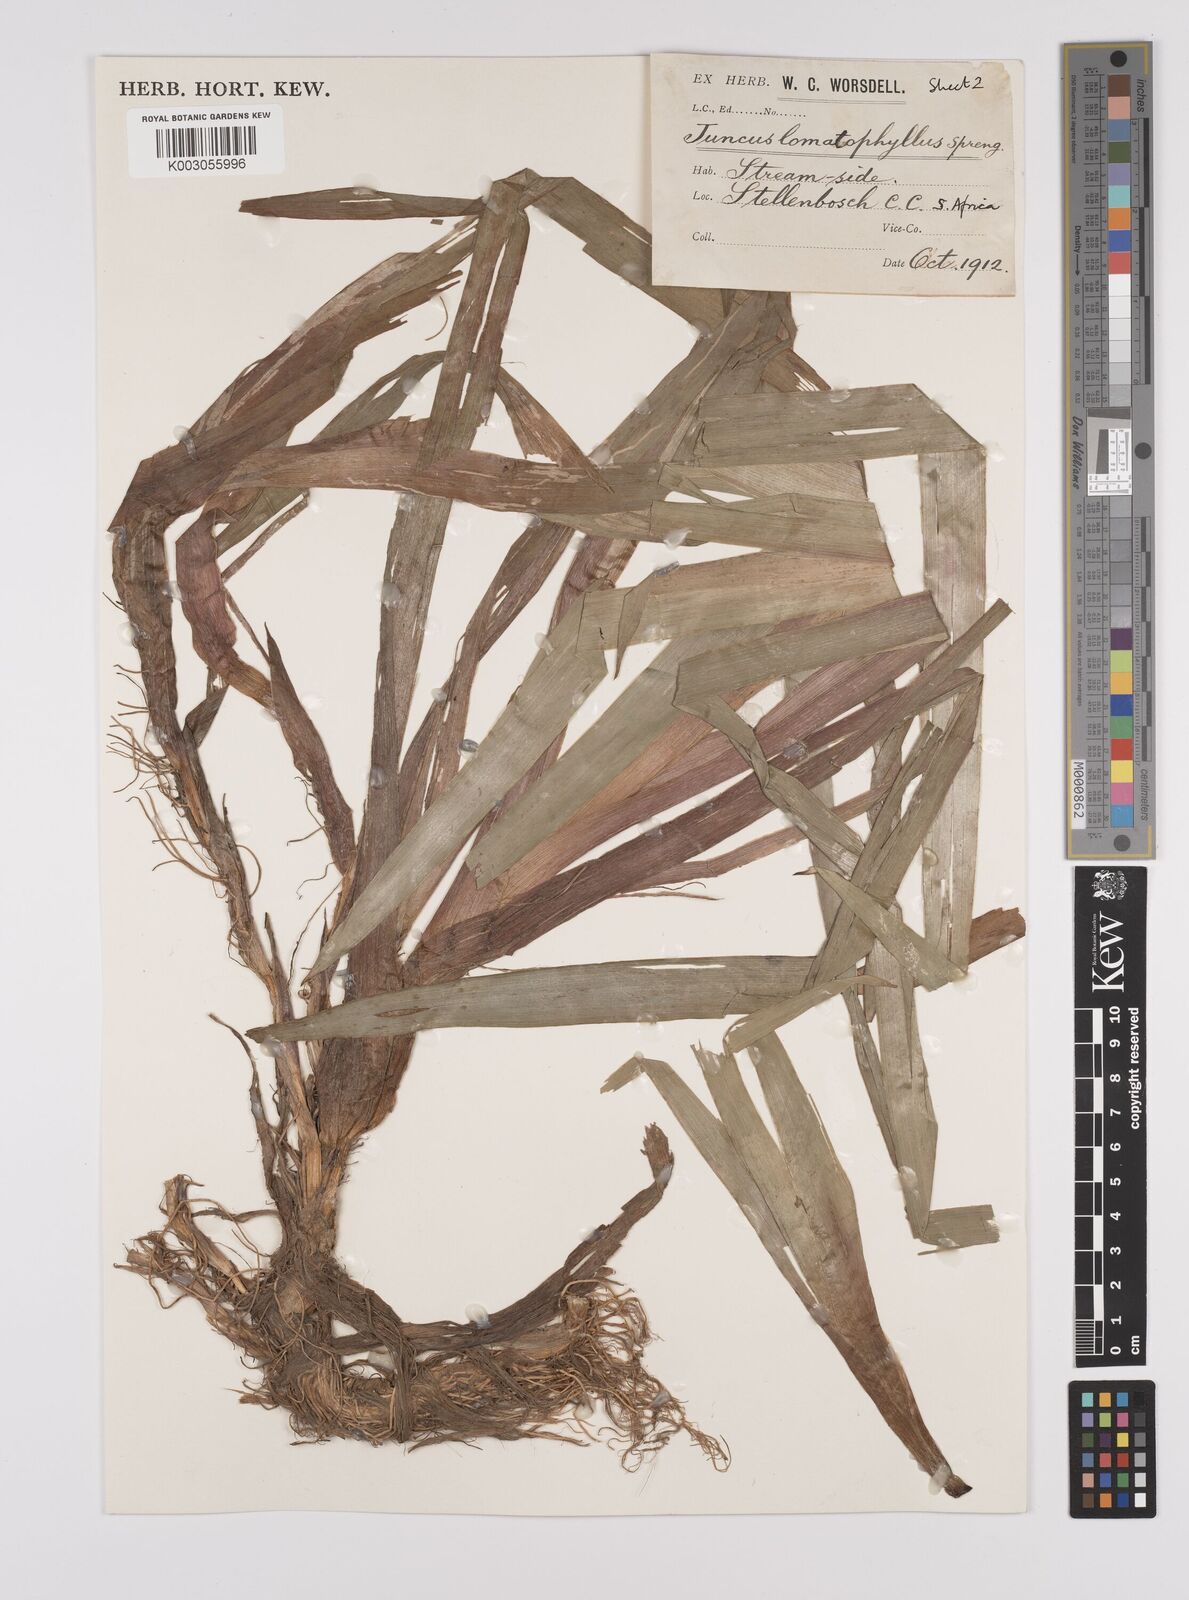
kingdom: Plantae
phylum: Tracheophyta
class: Liliopsida
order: Poales
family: Juncaceae
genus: Juncus
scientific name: Juncus lomatophyllus
